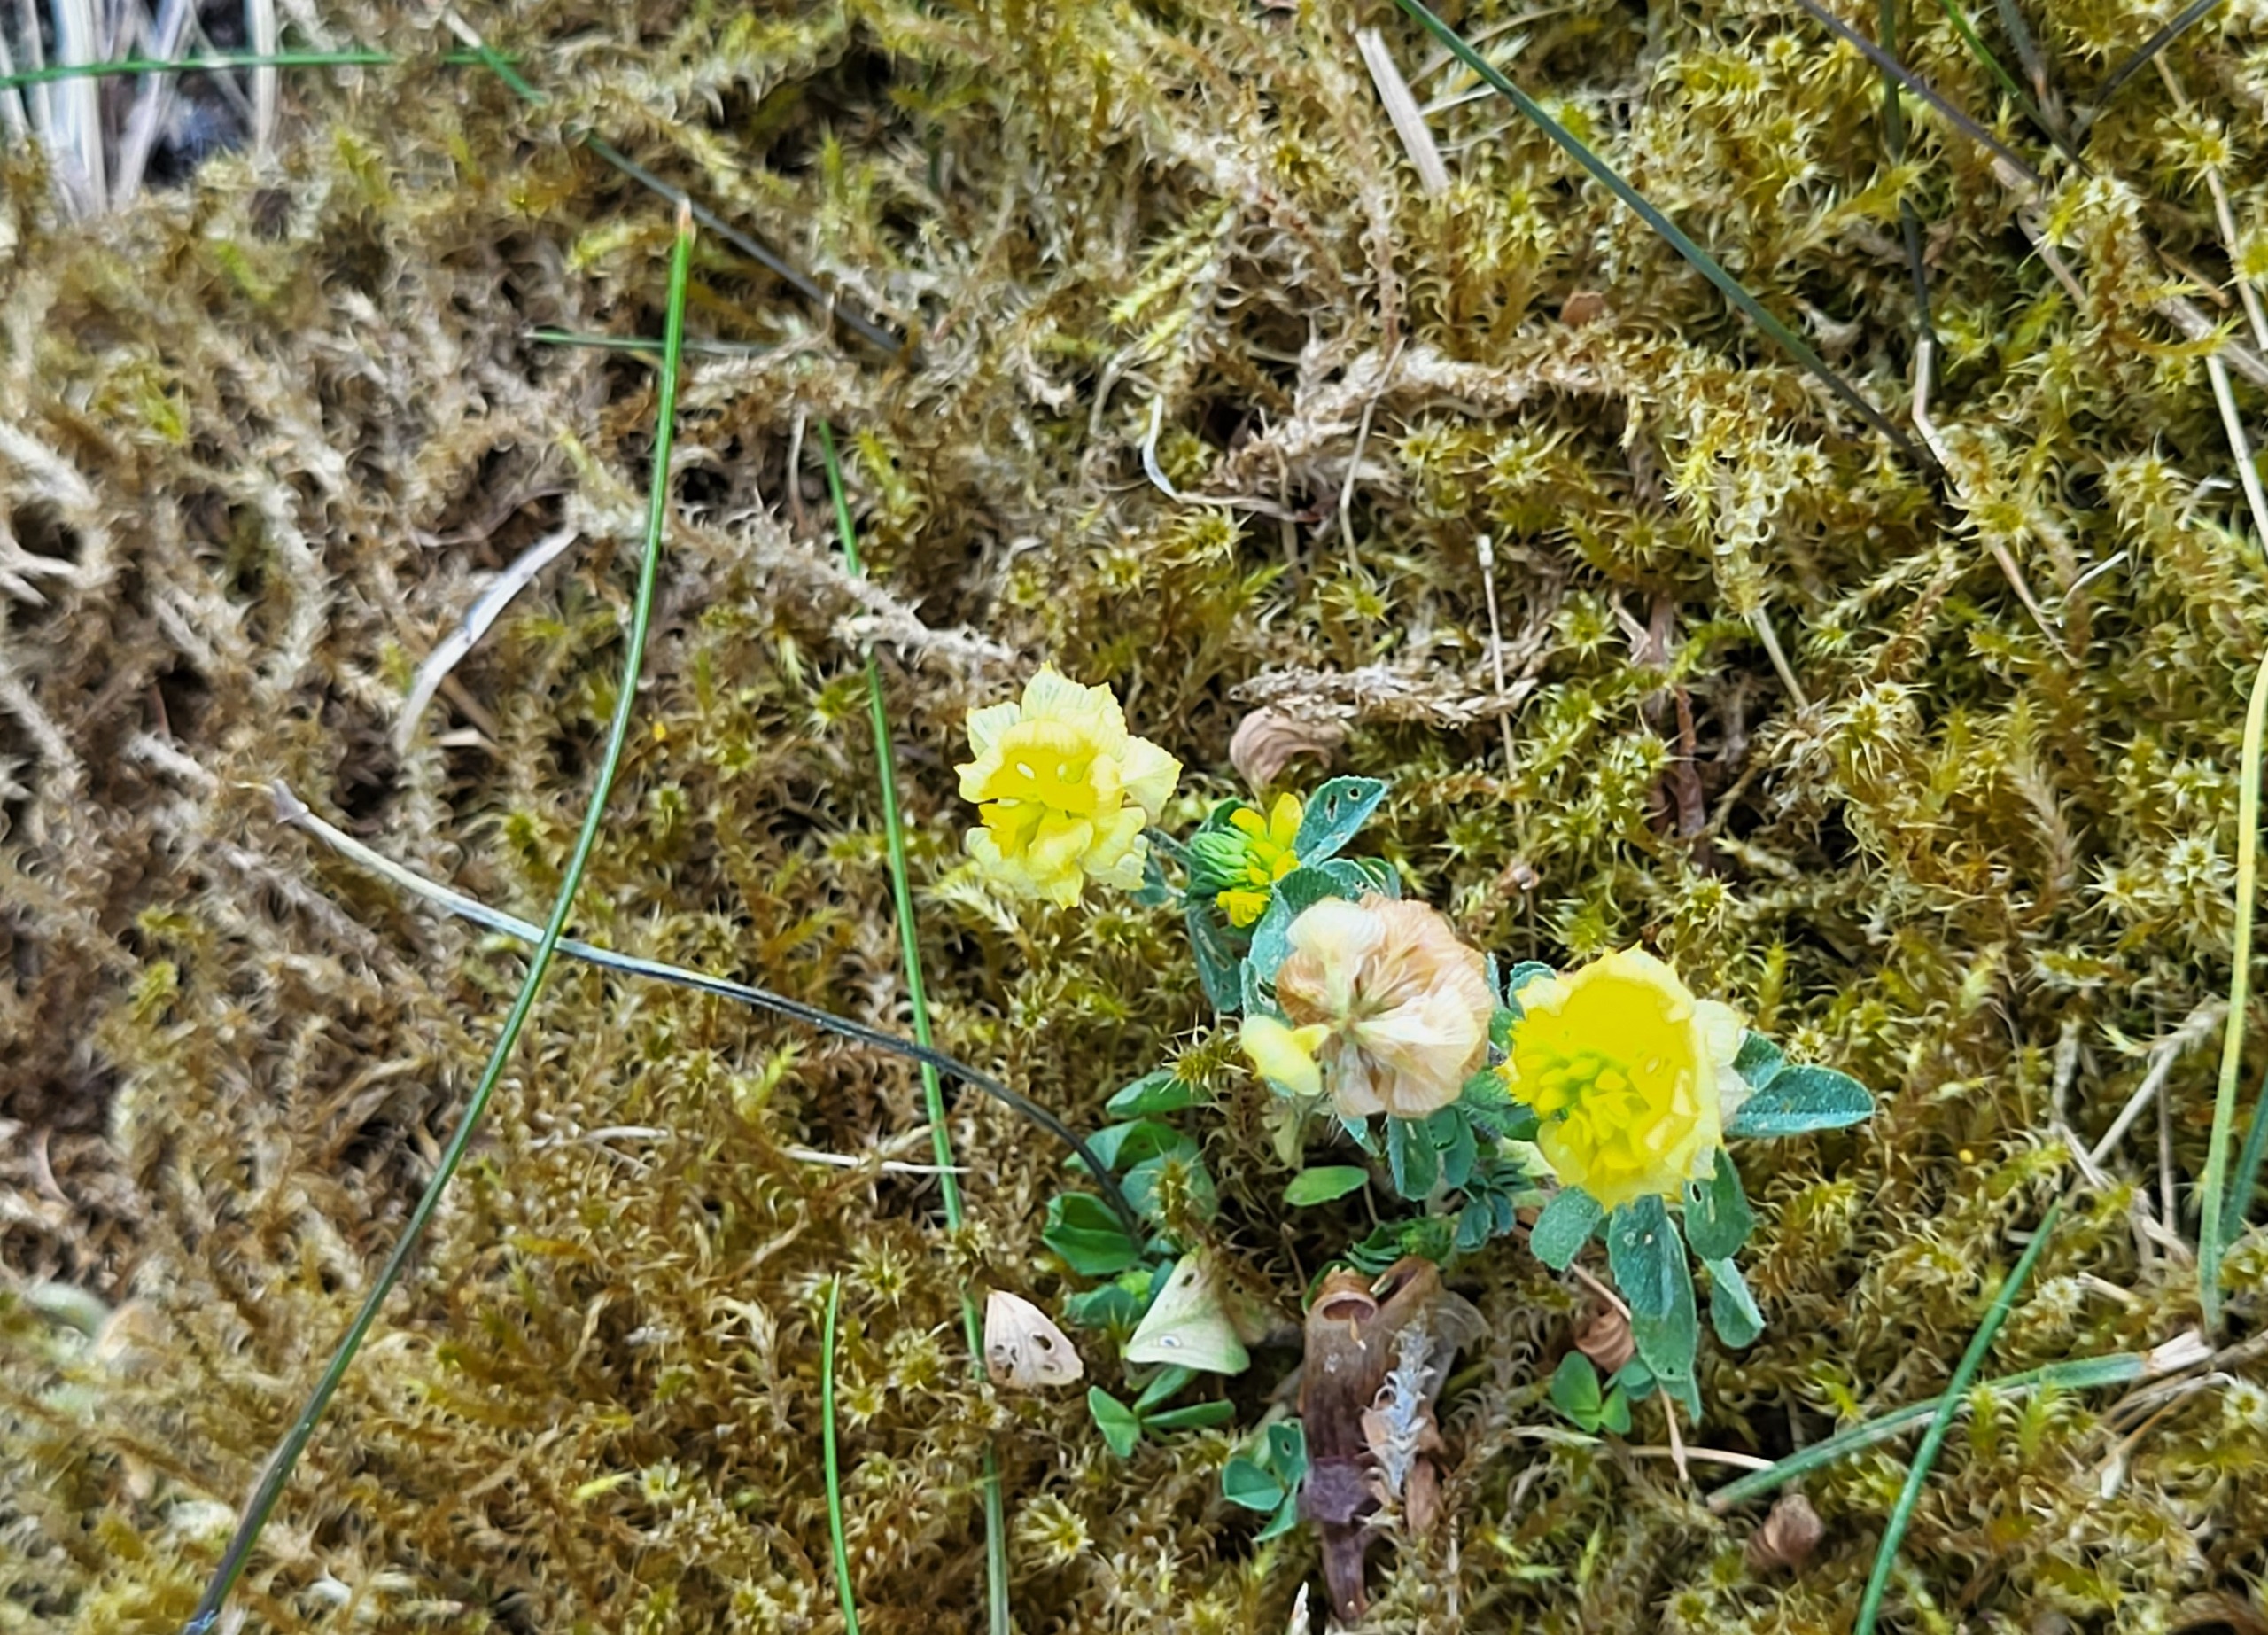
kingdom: Plantae
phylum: Tracheophyta
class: Magnoliopsida
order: Fabales
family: Fabaceae
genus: Trifolium
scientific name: Trifolium campestre
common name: Gul kløver
